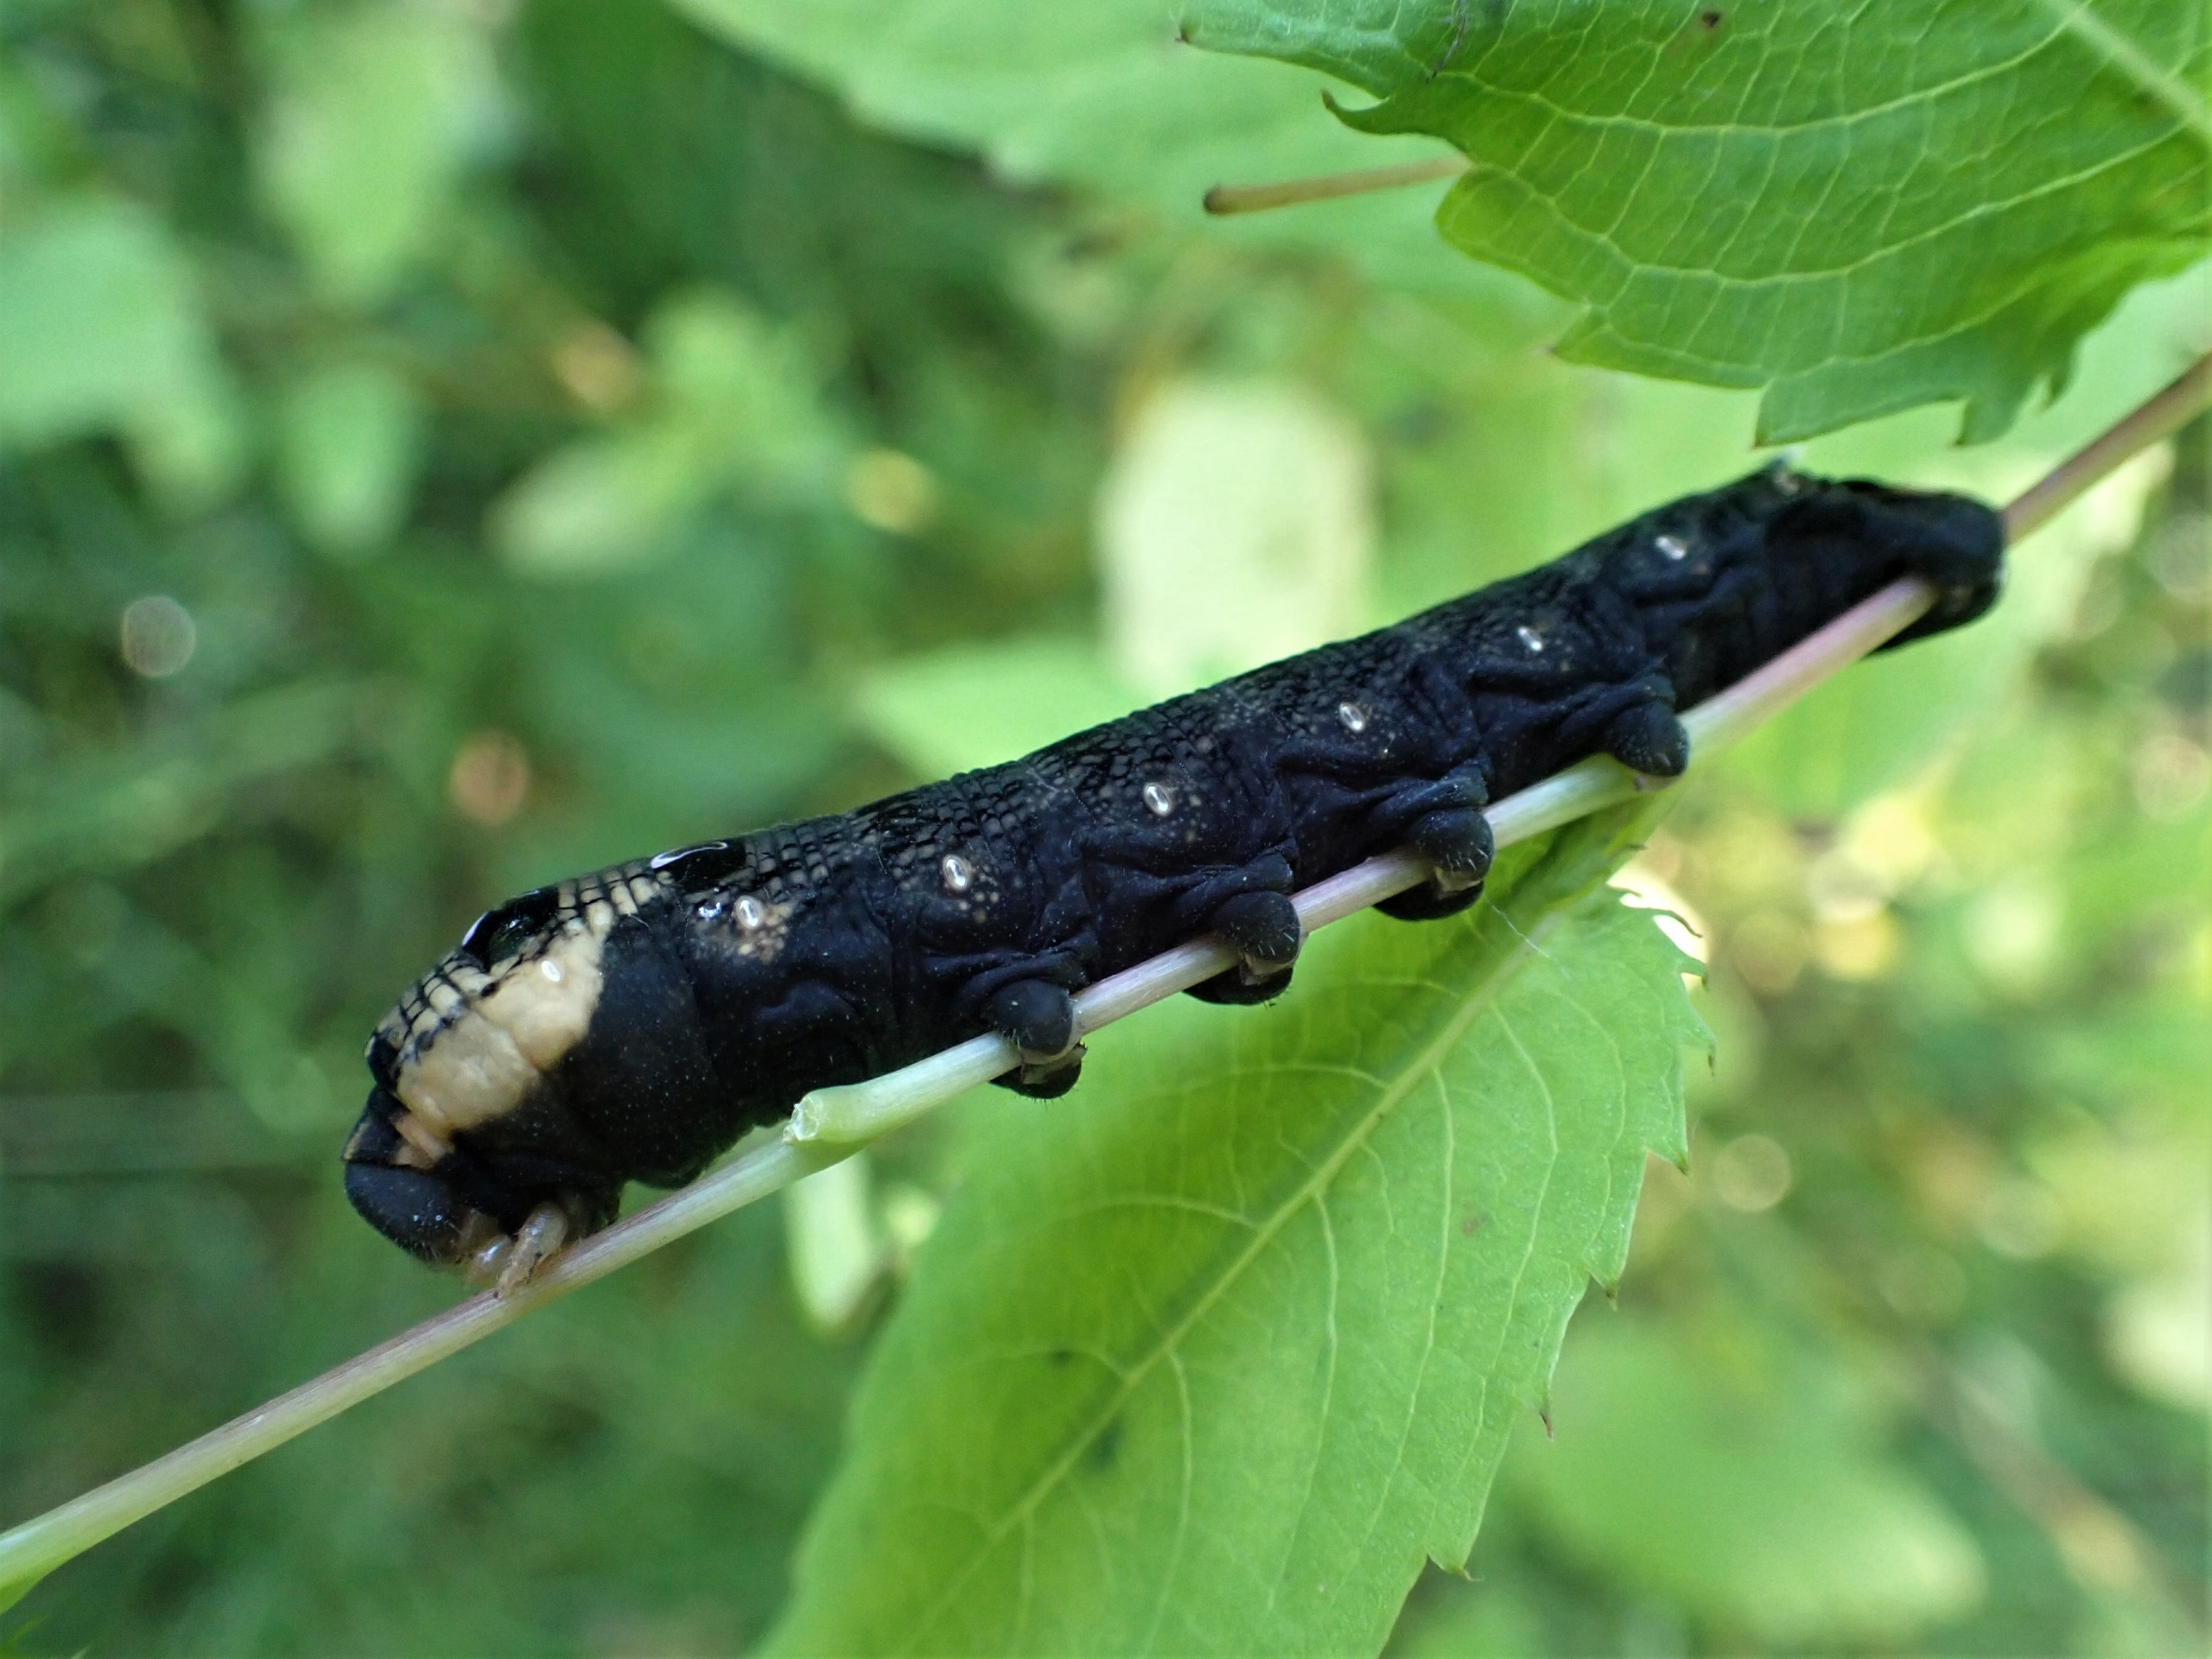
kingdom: Animalia
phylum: Arthropoda
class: Insecta
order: Lepidoptera
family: Sphingidae
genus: Deilephila
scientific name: Deilephila elpenor
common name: Dueurtsværmer
